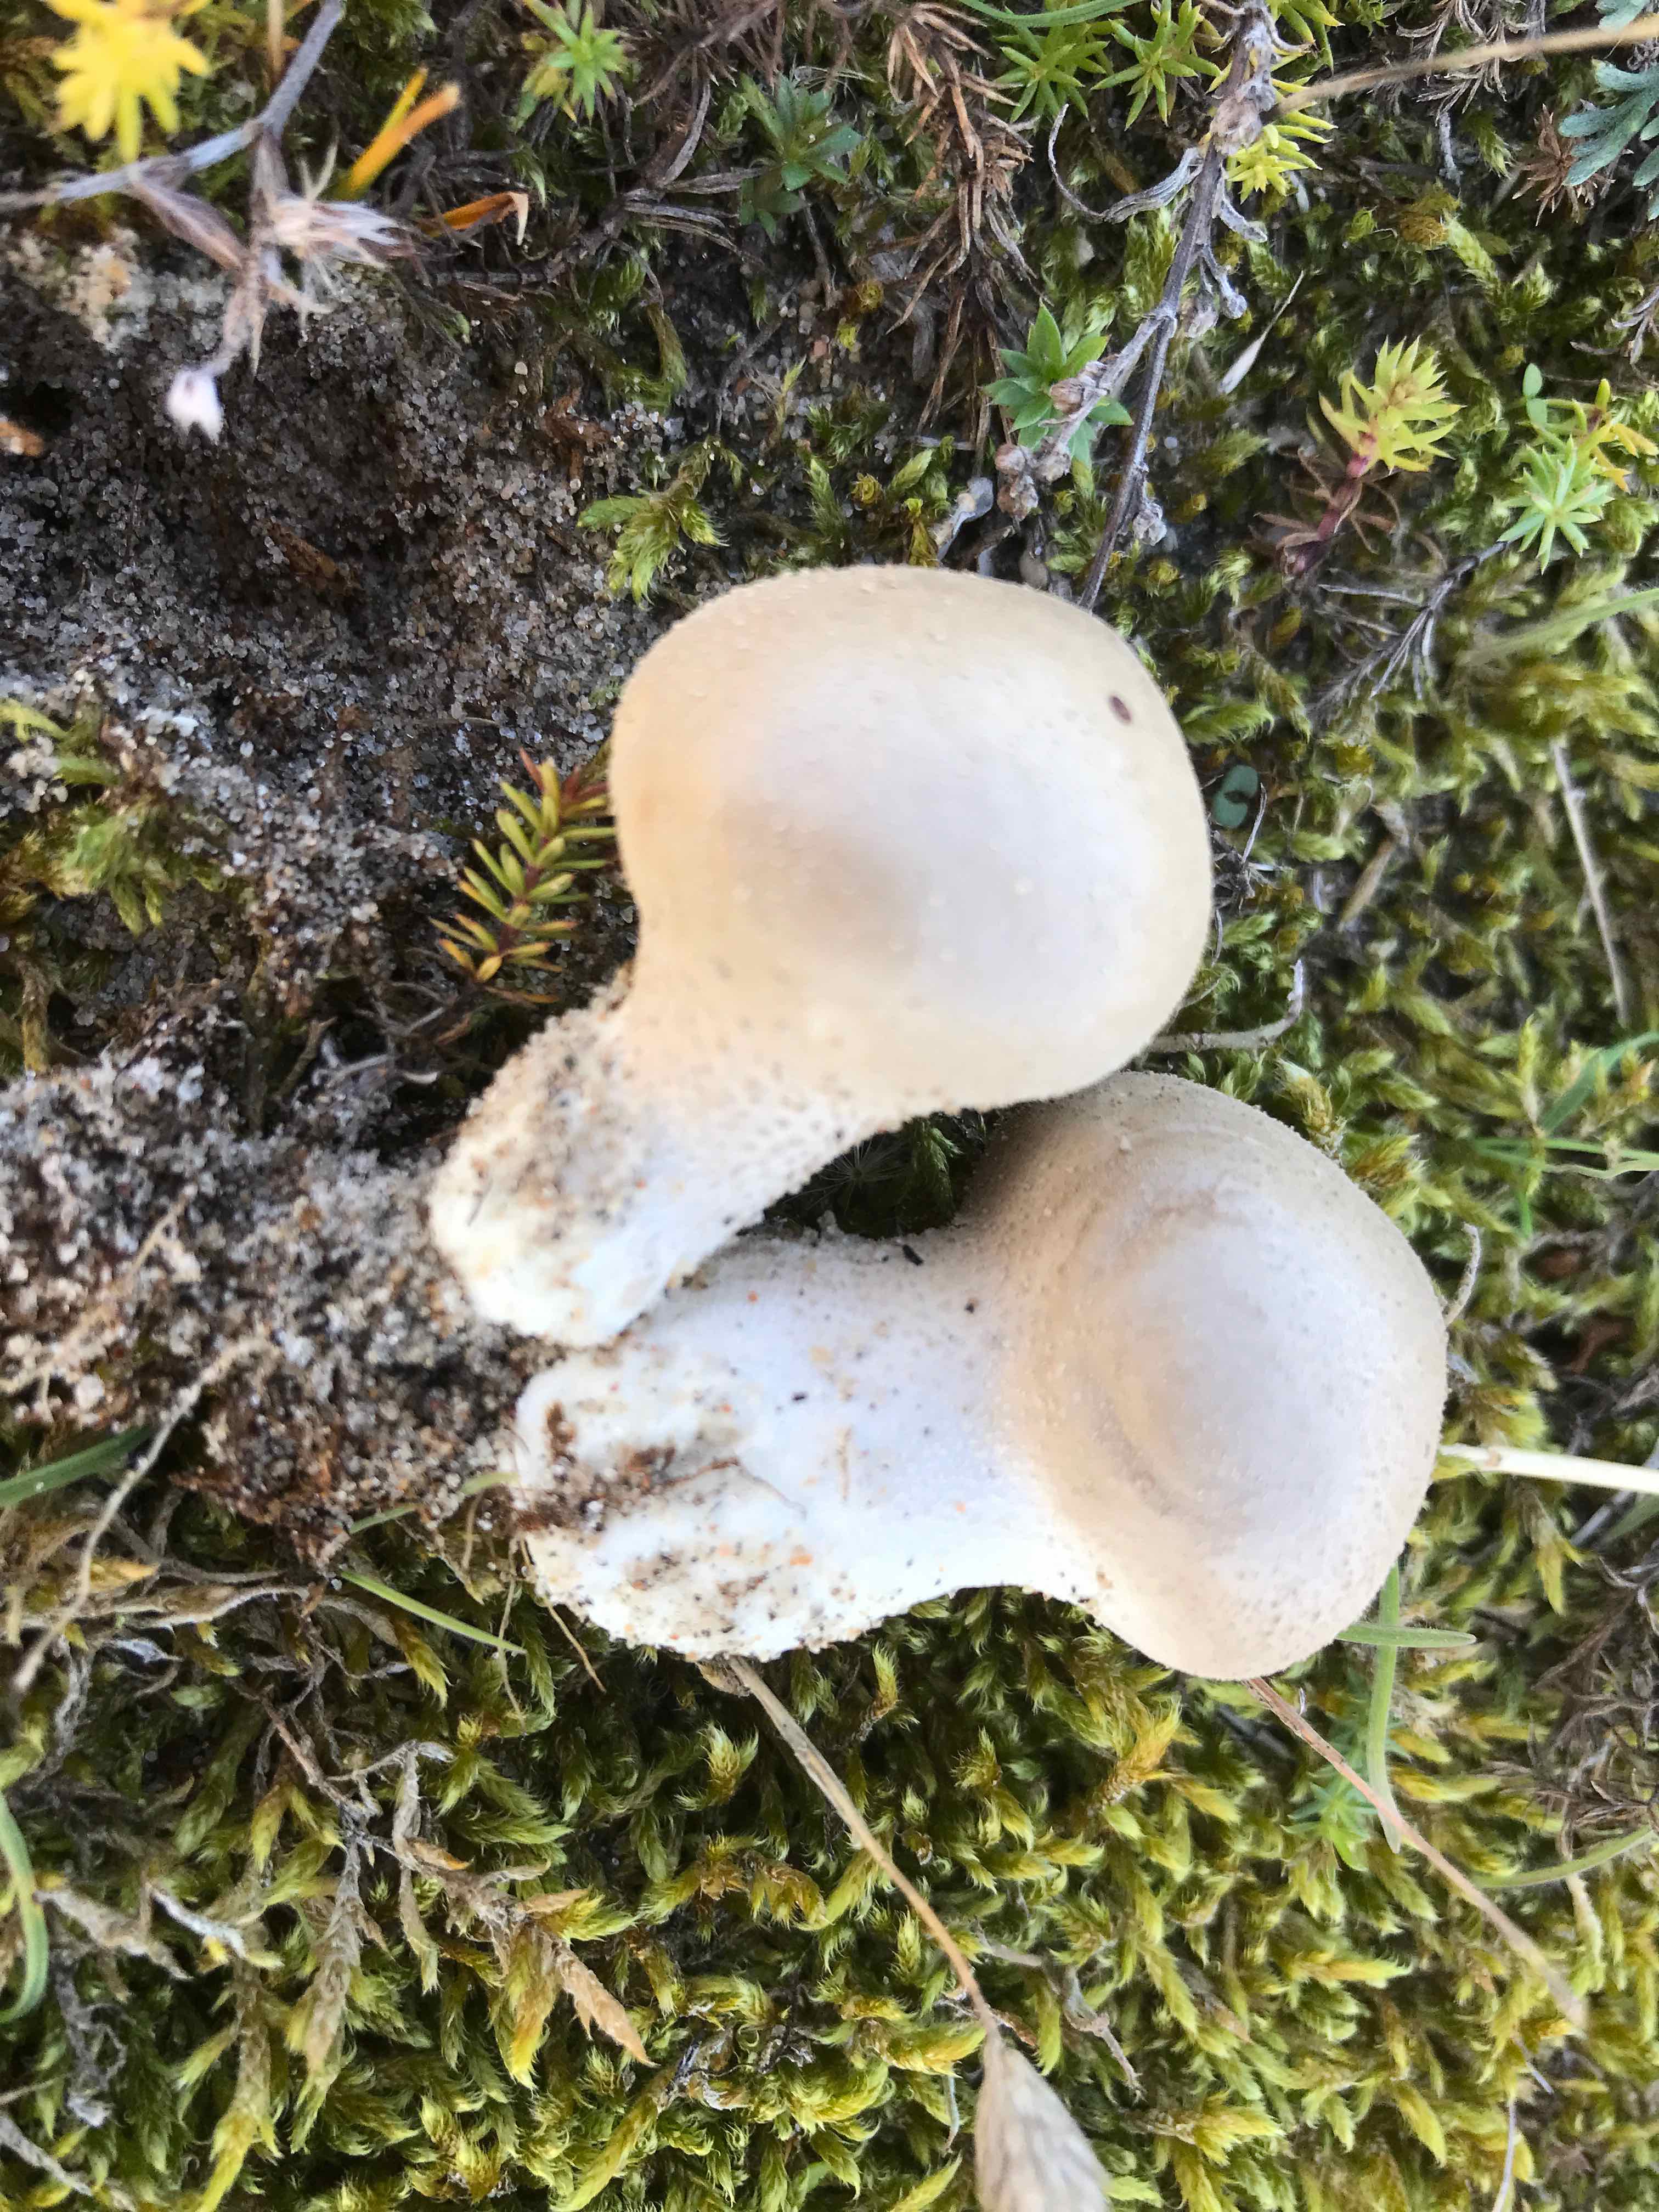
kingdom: Fungi
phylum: Basidiomycota
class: Agaricomycetes
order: Agaricales
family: Lycoperdaceae
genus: Lycoperdon
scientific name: Lycoperdon lividum
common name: mark-støvbold
